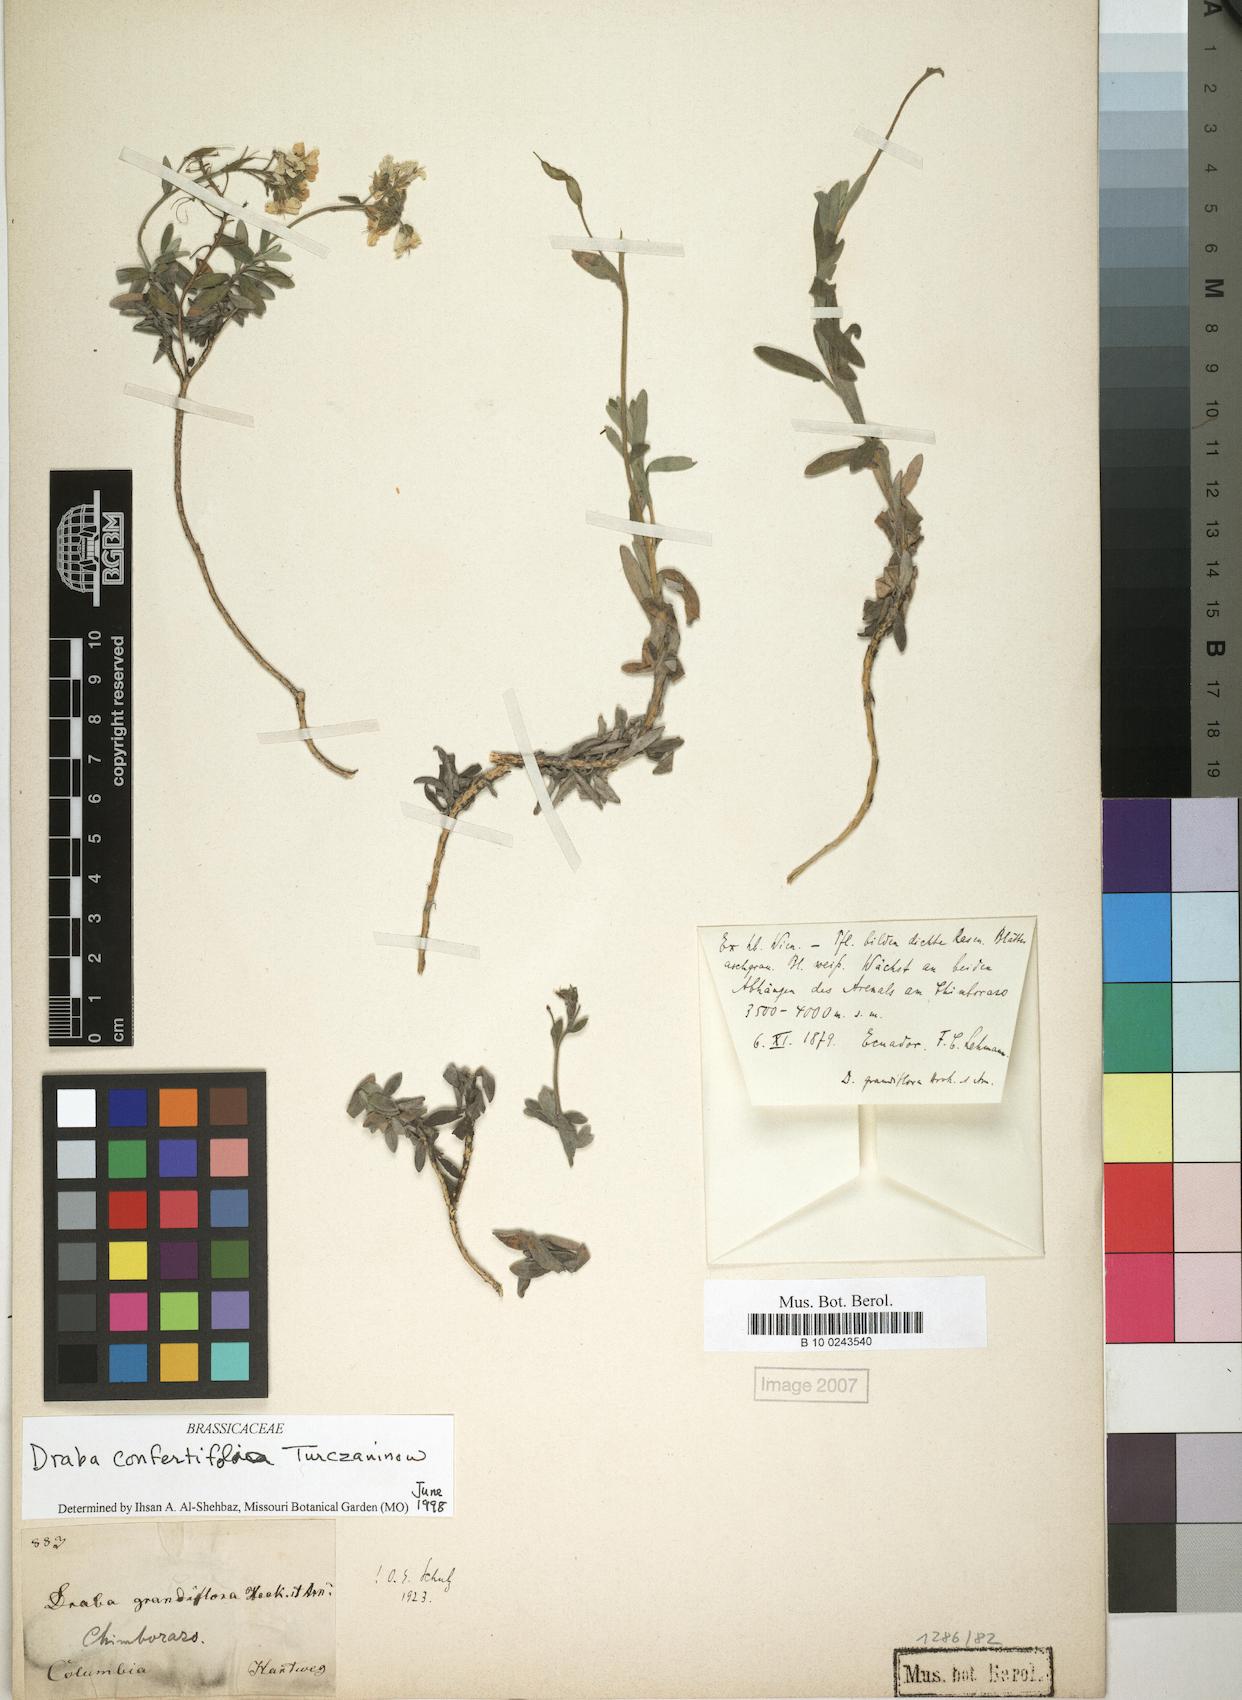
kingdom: Plantae
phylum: Tracheophyta
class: Magnoliopsida
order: Brassicales
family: Brassicaceae
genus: Draba
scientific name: Draba confertifolia
